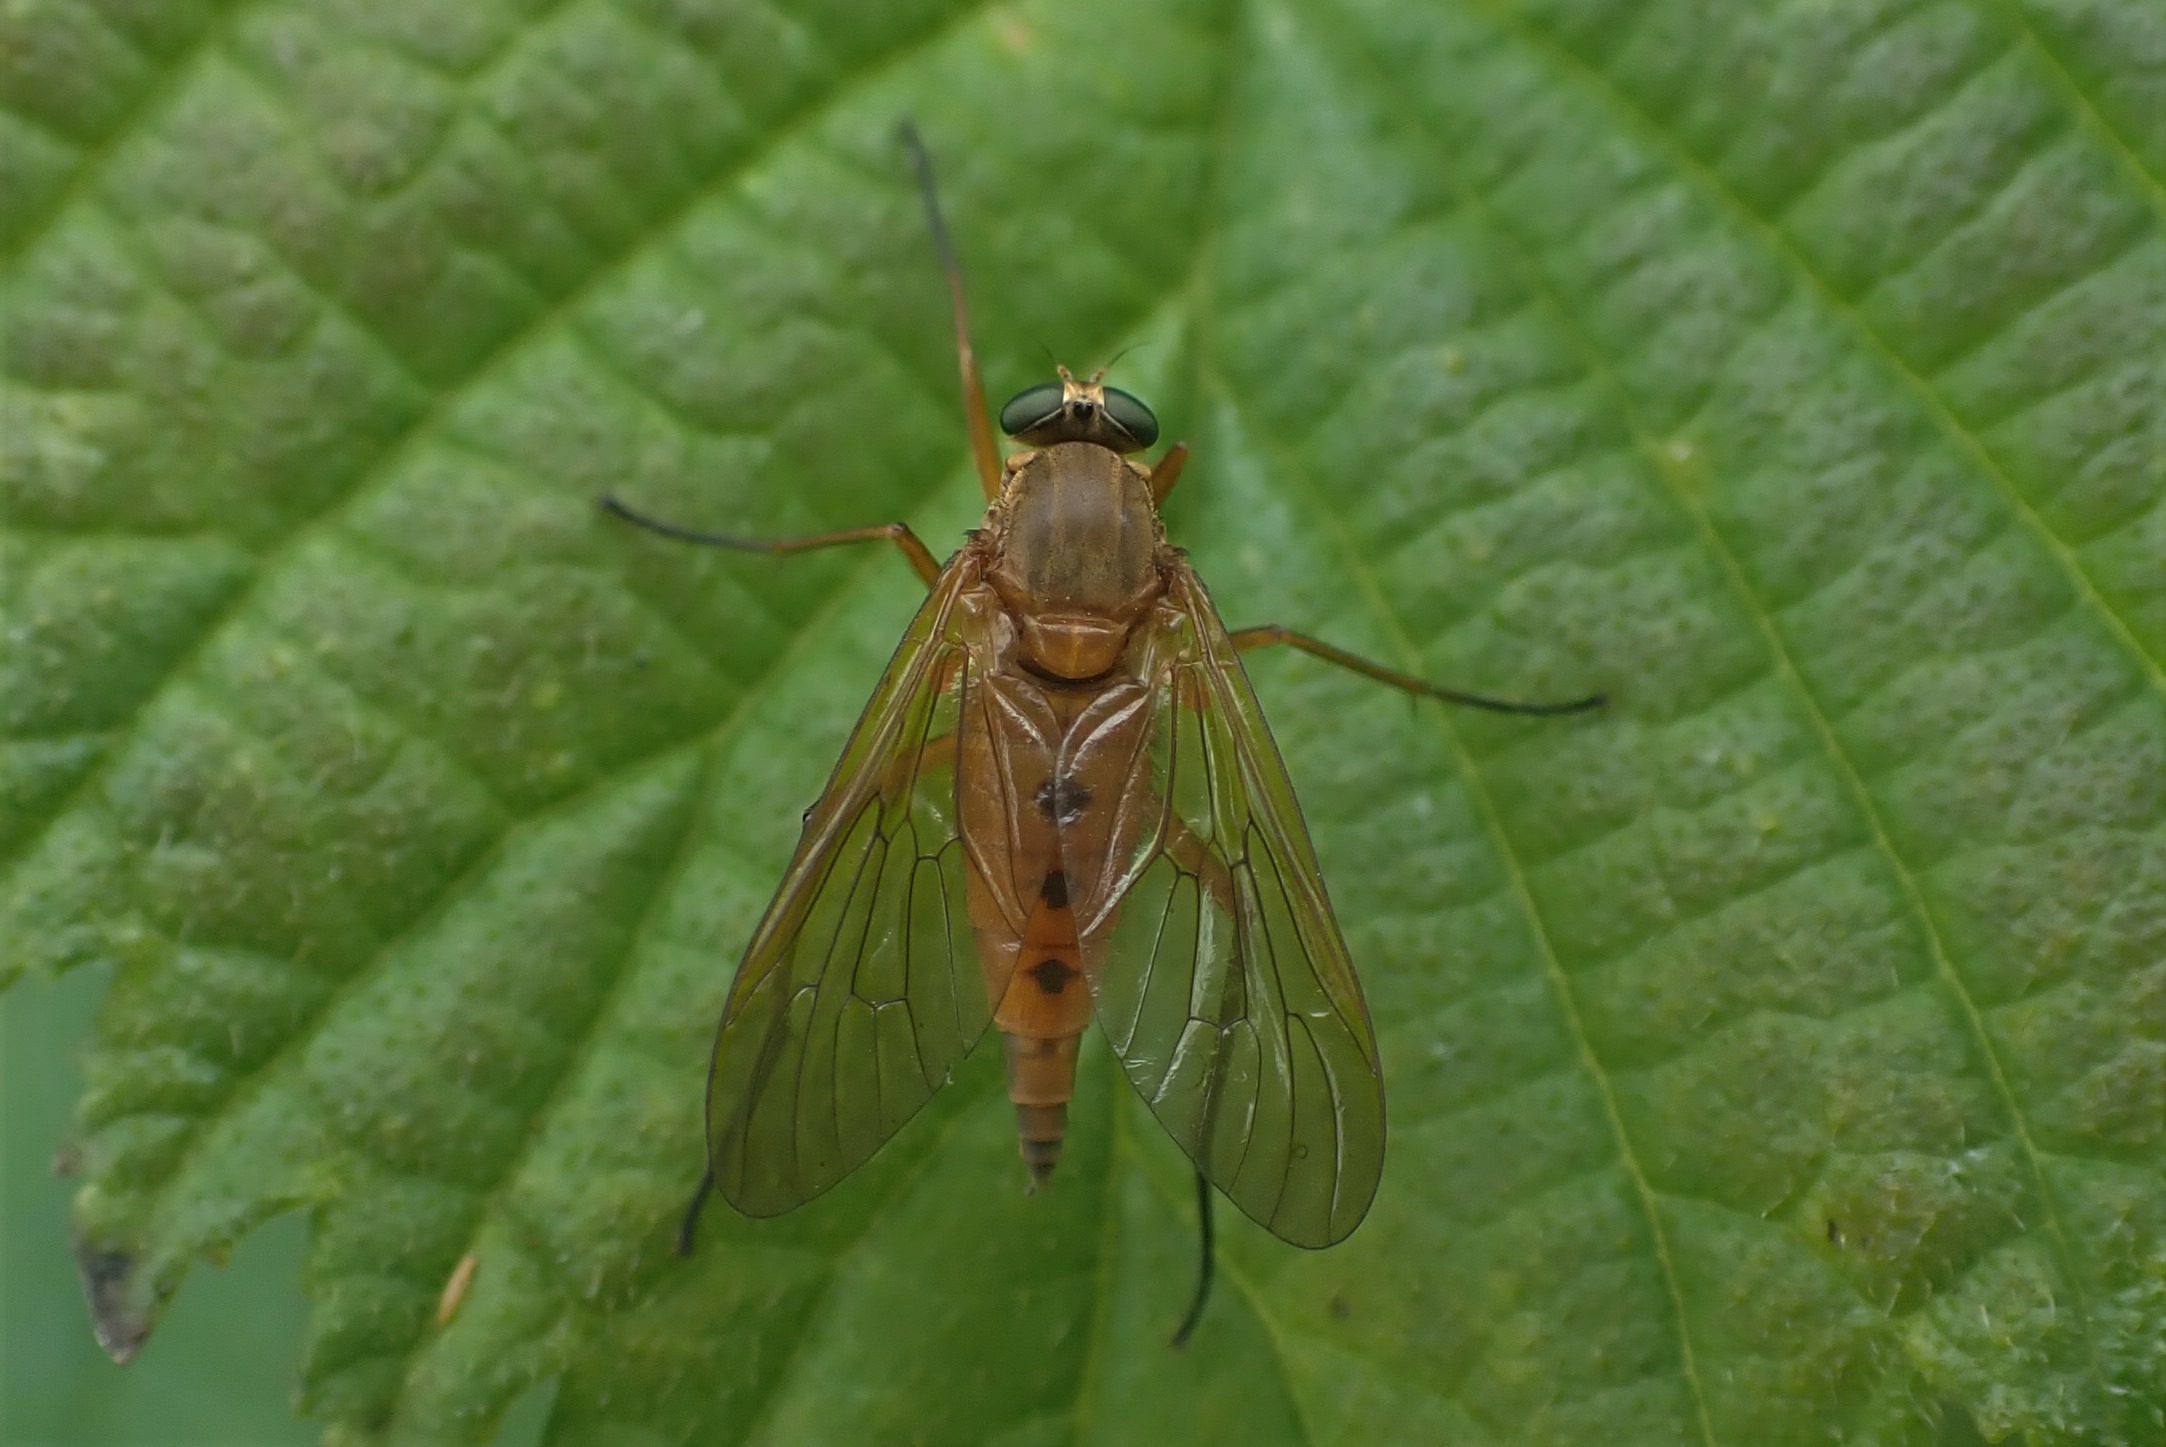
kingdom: Animalia
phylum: Arthropoda
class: Insecta
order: Diptera
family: Rhagionidae
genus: Rhagio
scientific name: Rhagio tringaria
